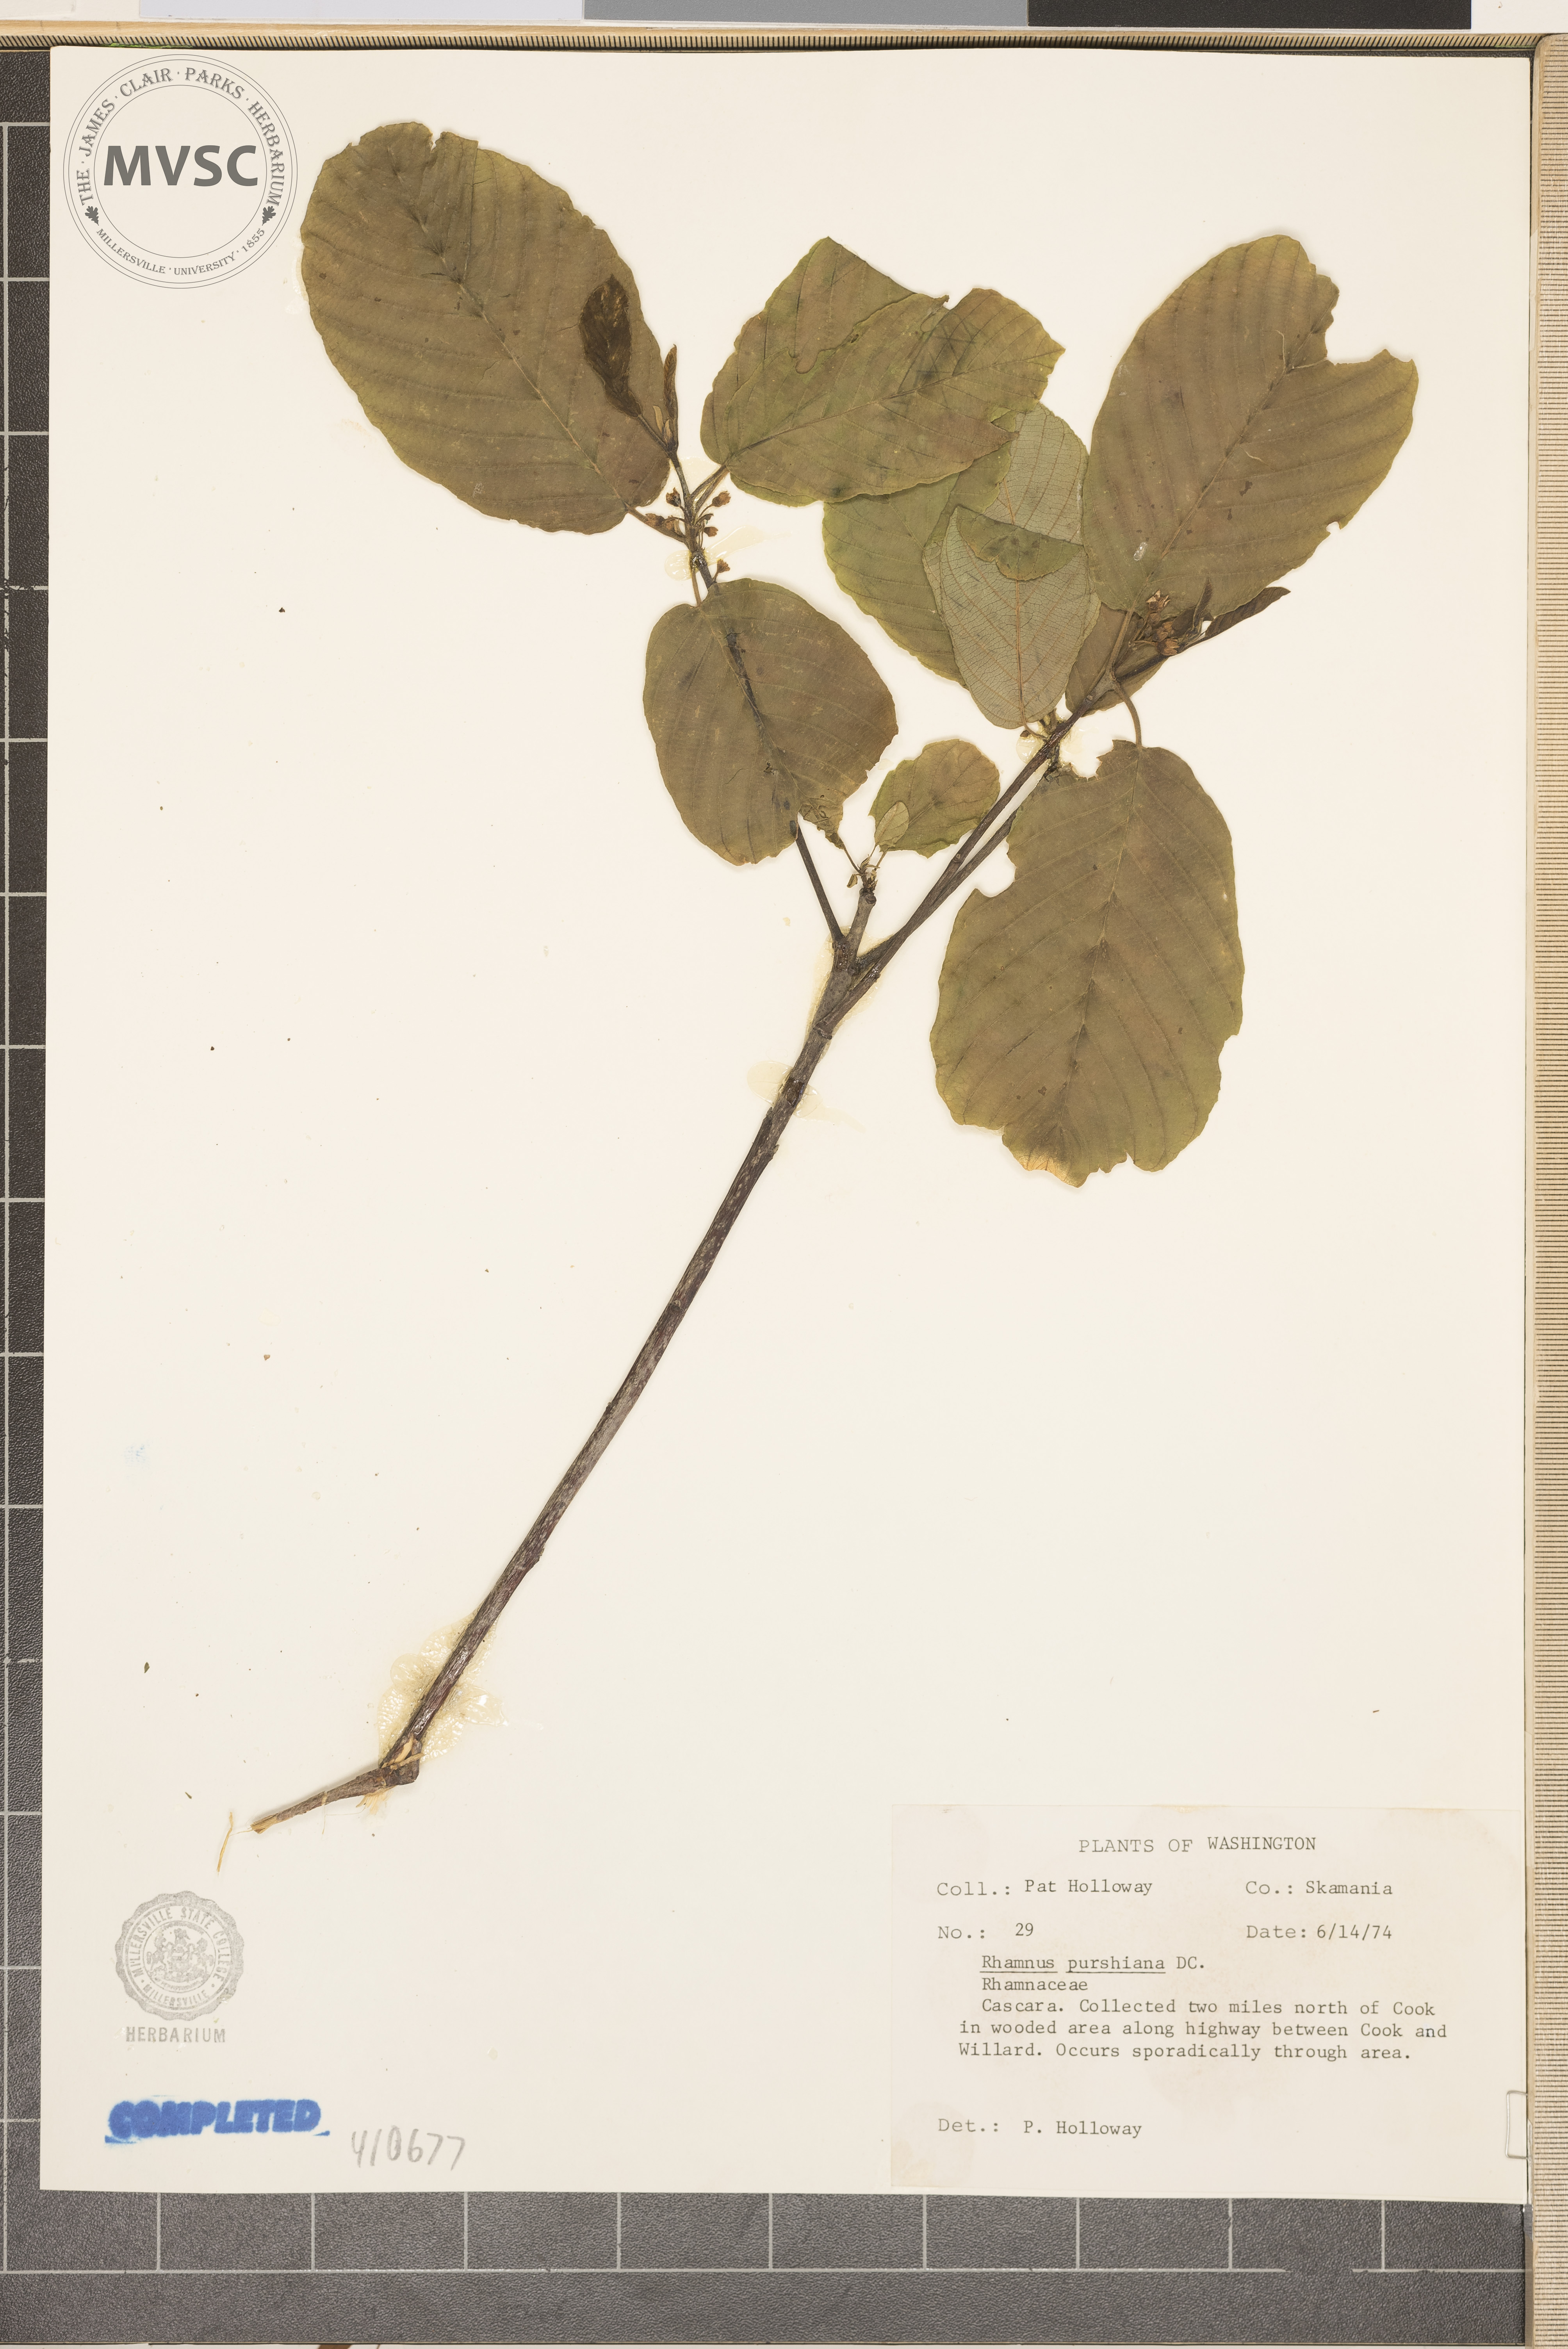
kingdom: Plantae
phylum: Tracheophyta
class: Magnoliopsida
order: Rosales
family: Rhamnaceae
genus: Frangula
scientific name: Frangula purshiana
